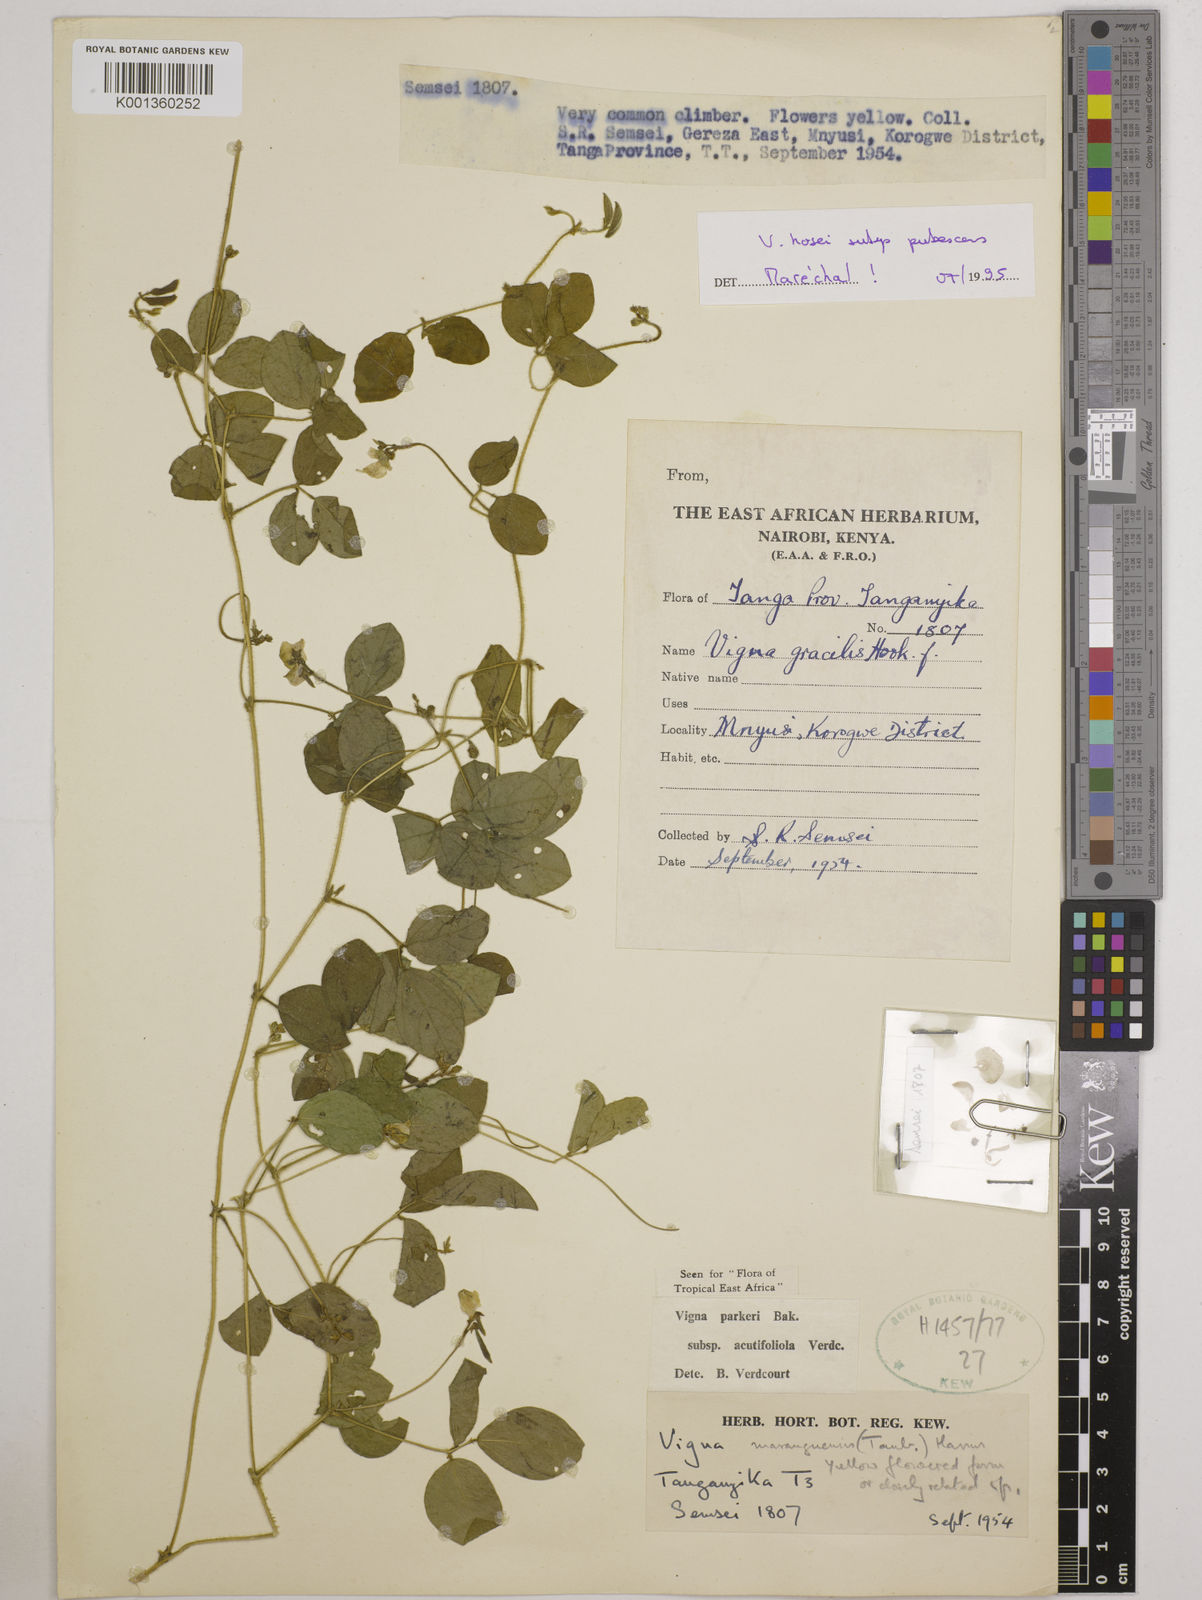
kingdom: Plantae
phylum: Tracheophyta
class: Magnoliopsida
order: Fabales
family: Fabaceae
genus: Vigna
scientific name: Vigna
